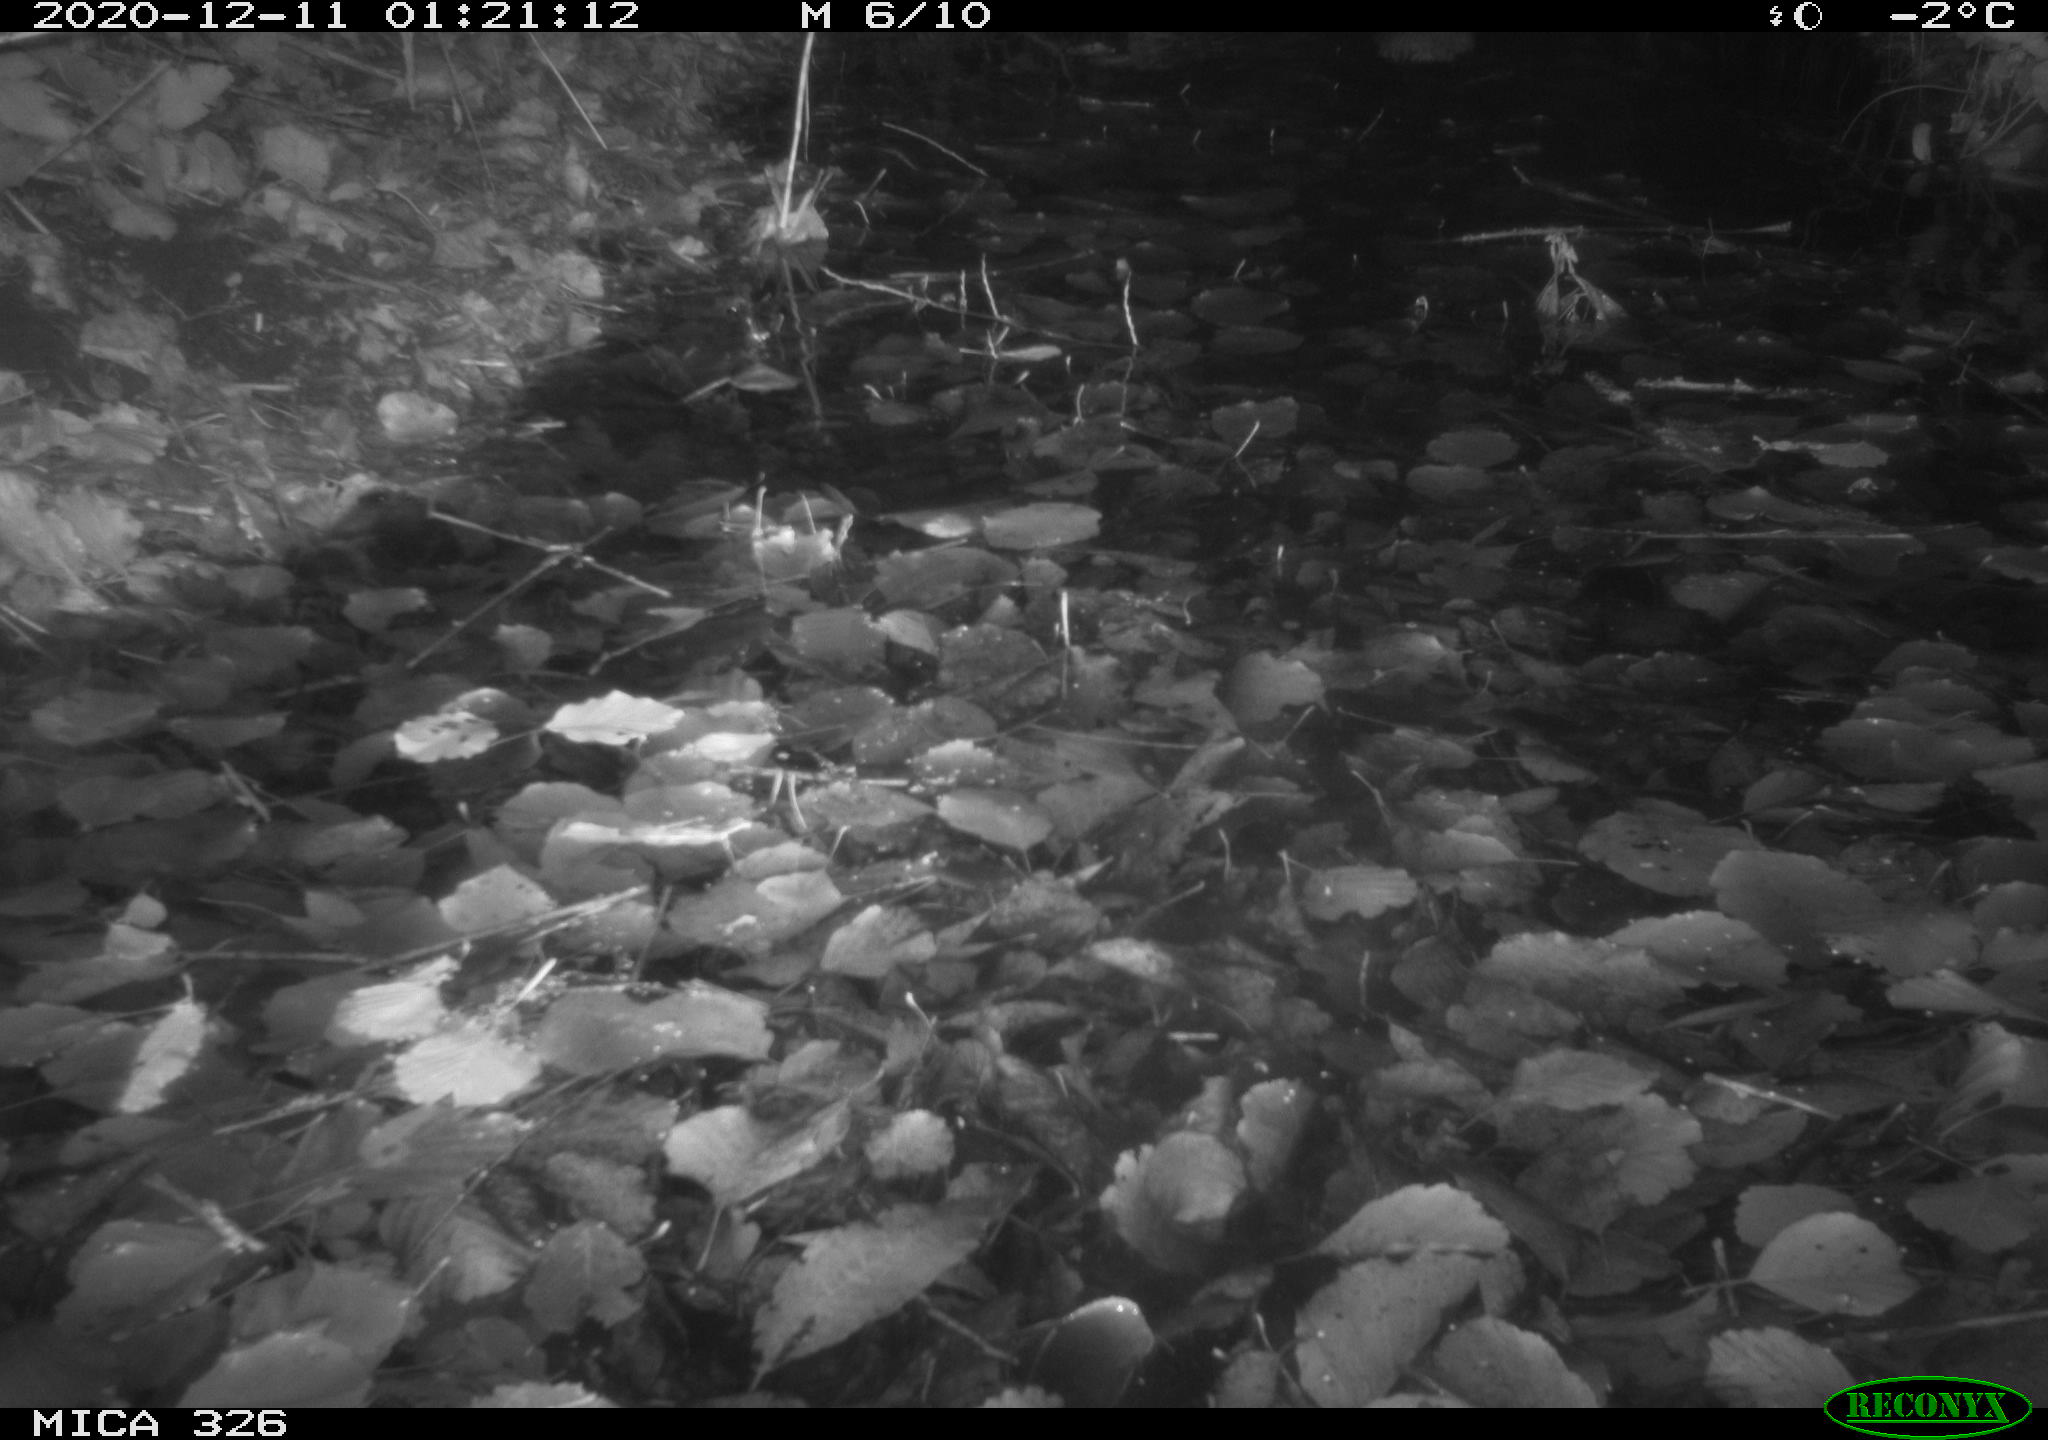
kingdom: Animalia
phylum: Chordata
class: Mammalia
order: Rodentia
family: Cricetidae
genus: Ondatra
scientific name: Ondatra zibethicus
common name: Muskrat
